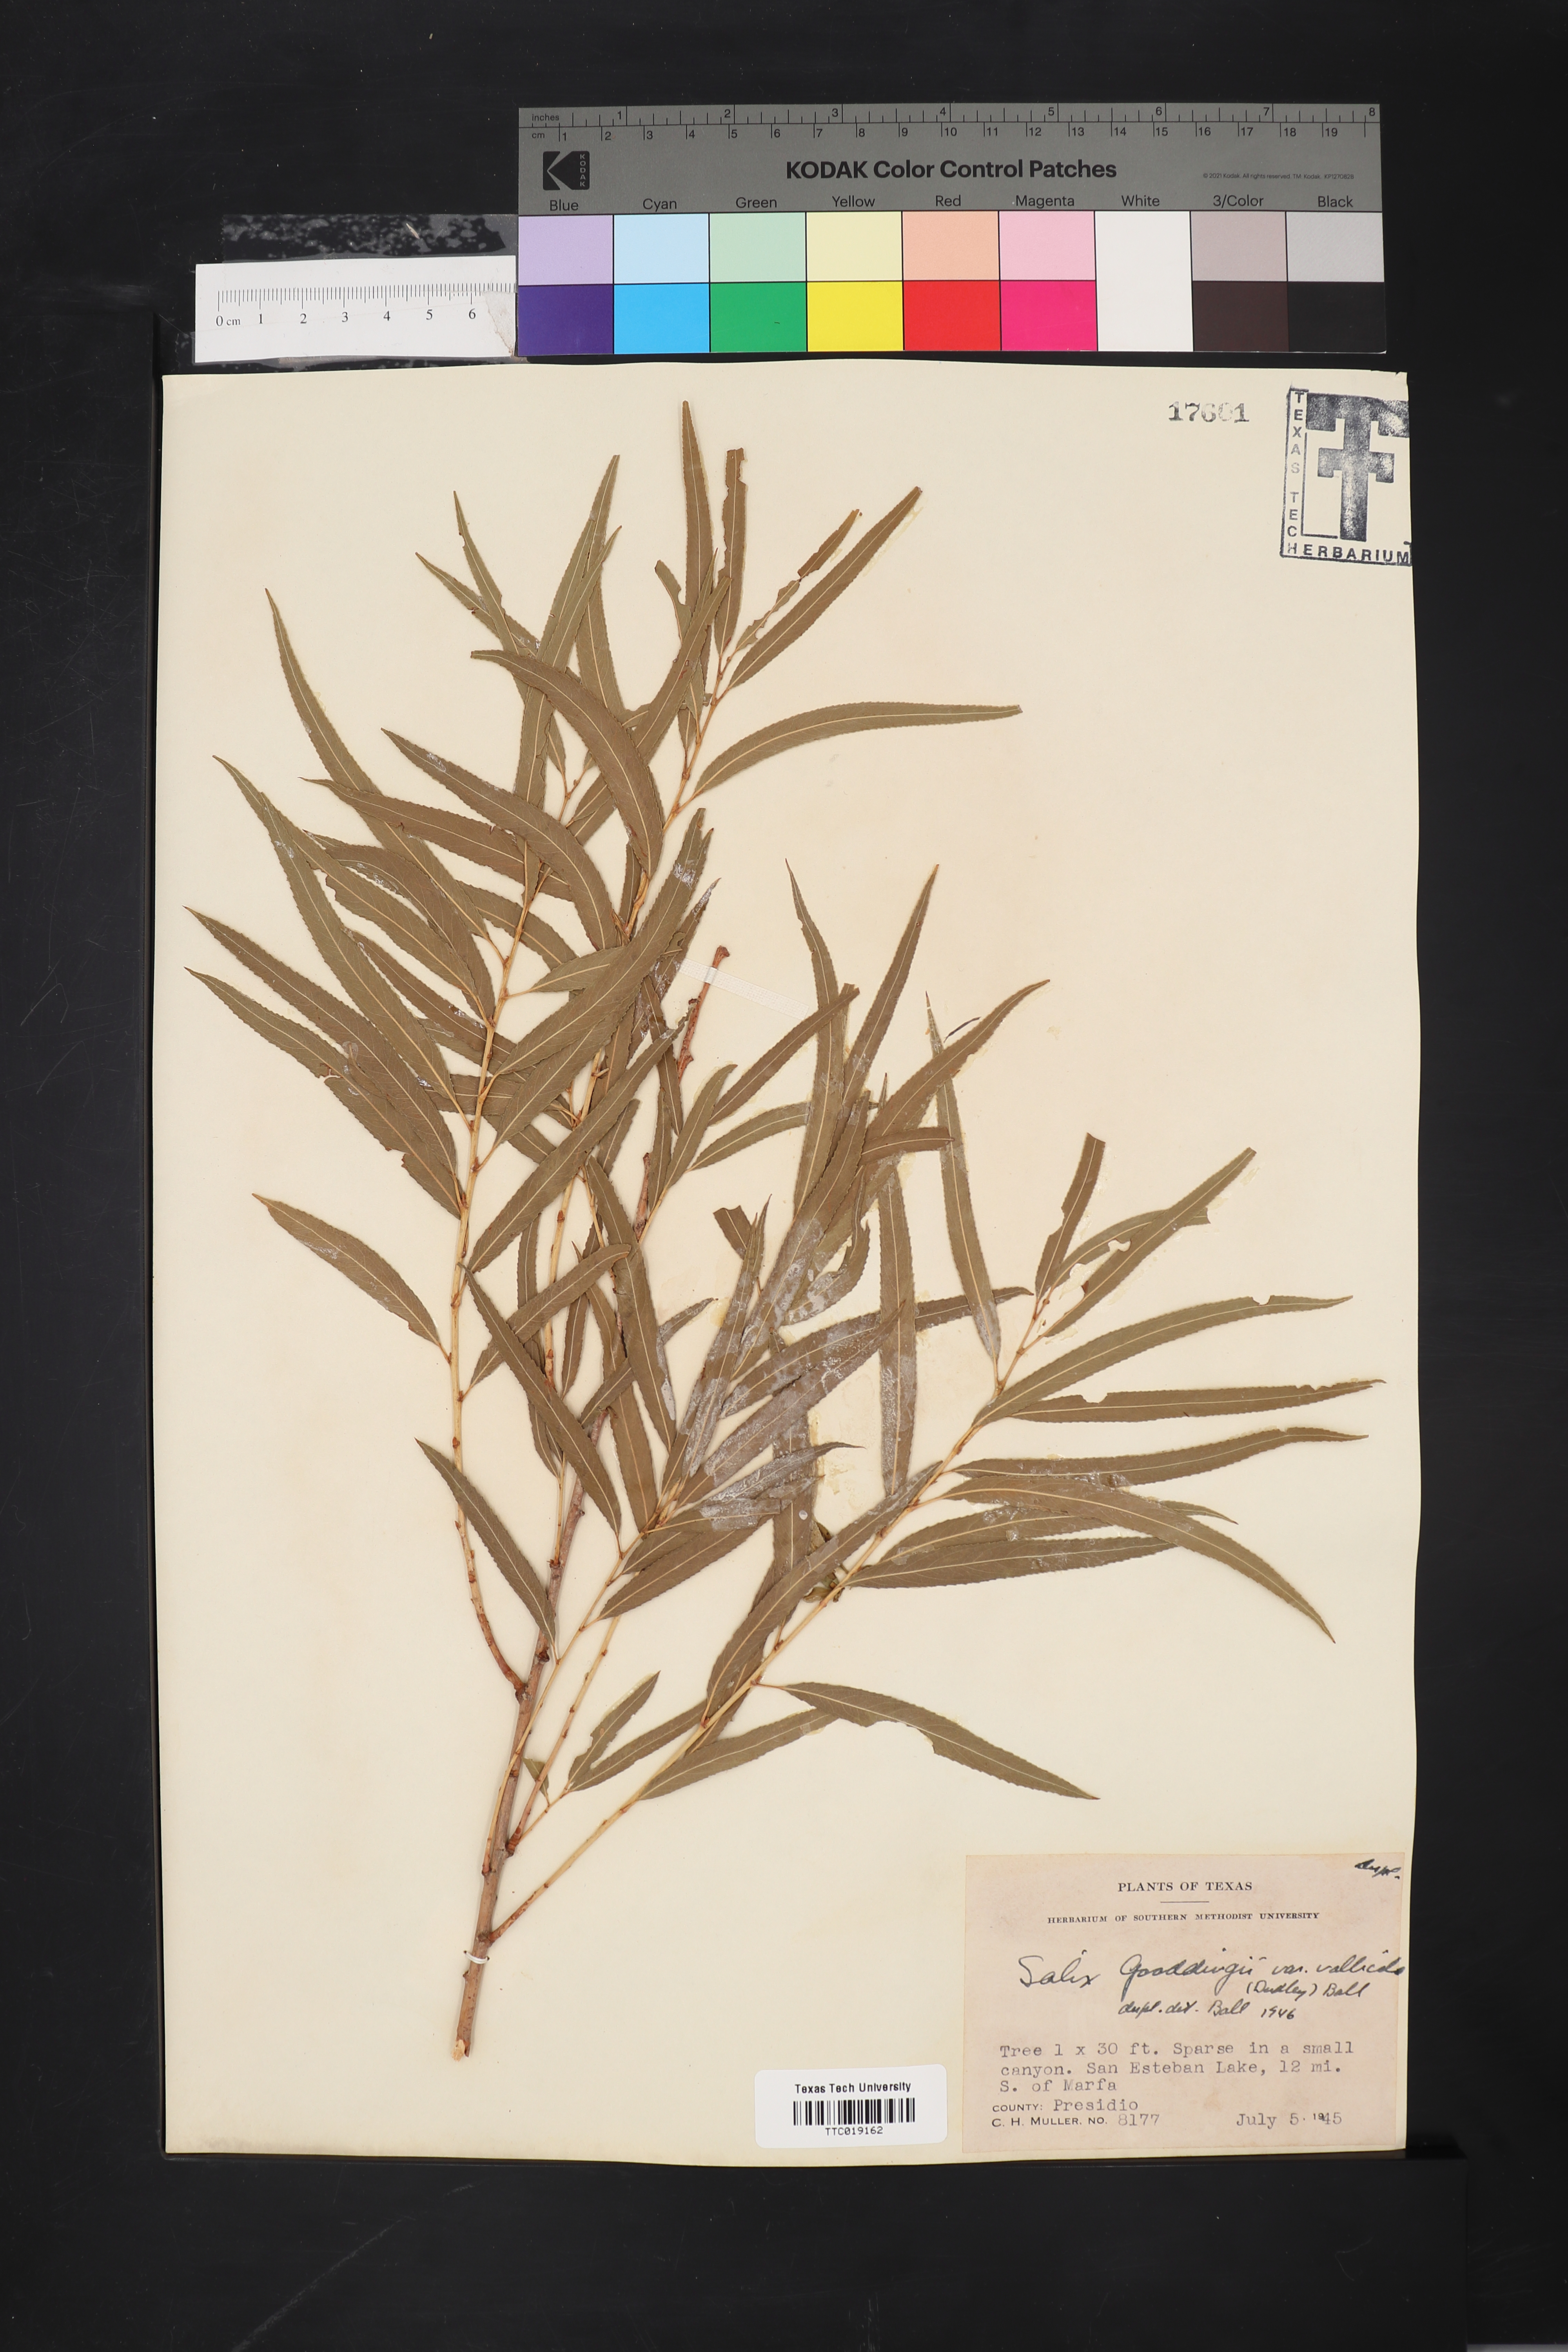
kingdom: Plantae
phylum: Tracheophyta
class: Magnoliopsida
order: Malpighiales
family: Salicaceae
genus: Salix
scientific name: Salix gooddingii
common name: Goodding's willow
